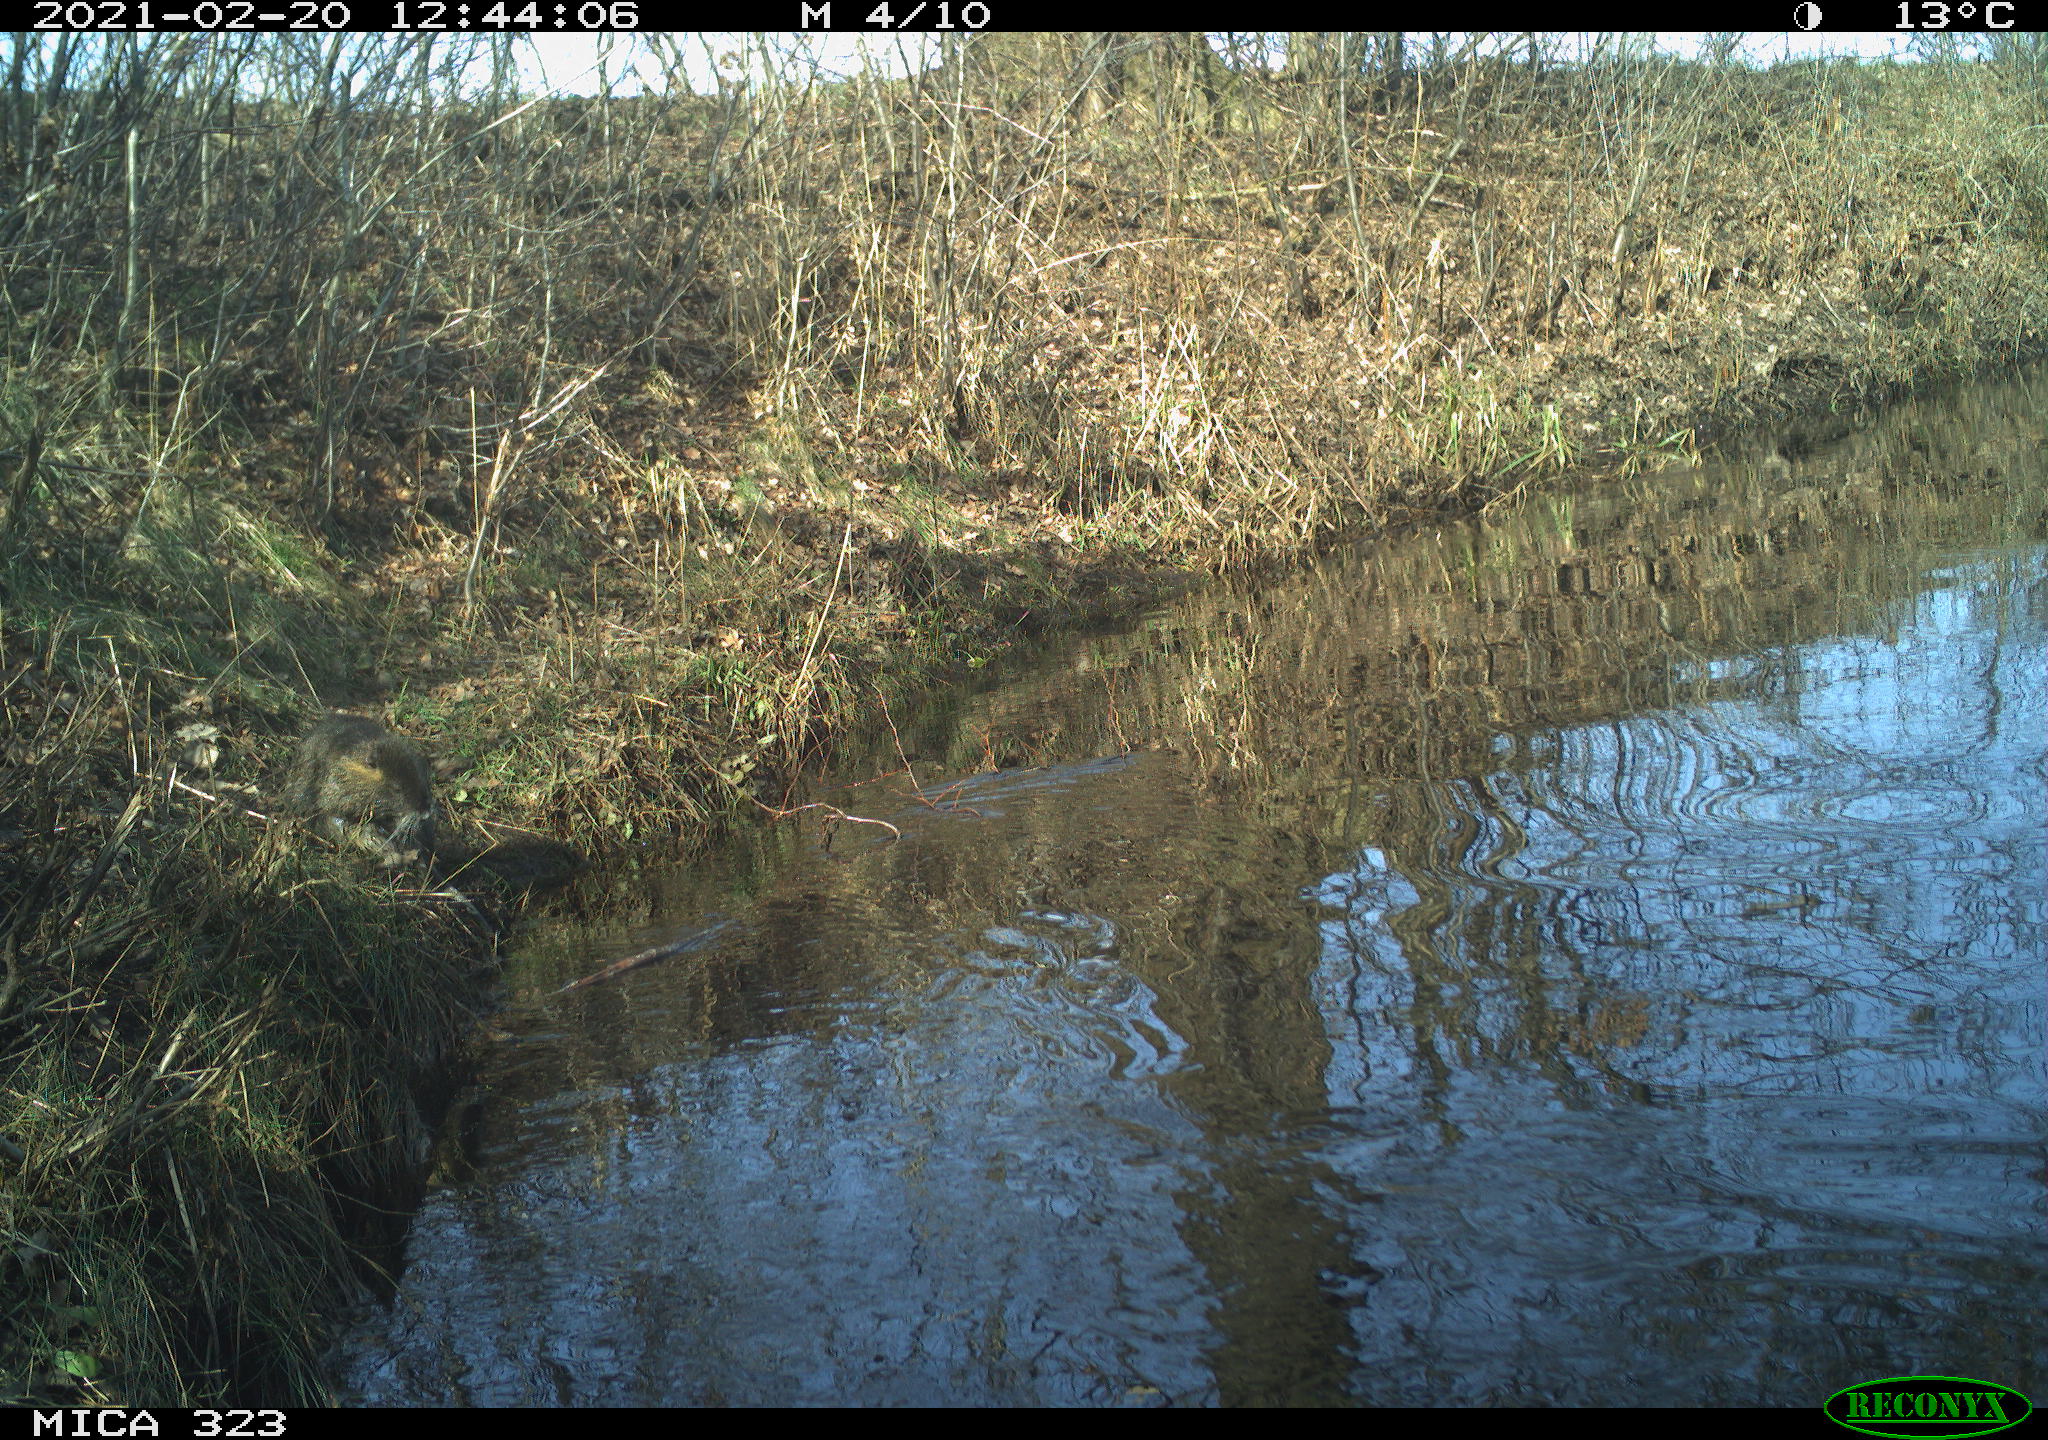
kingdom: Animalia
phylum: Chordata
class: Mammalia
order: Rodentia
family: Myocastoridae
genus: Myocastor
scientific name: Myocastor coypus
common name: Coypu
